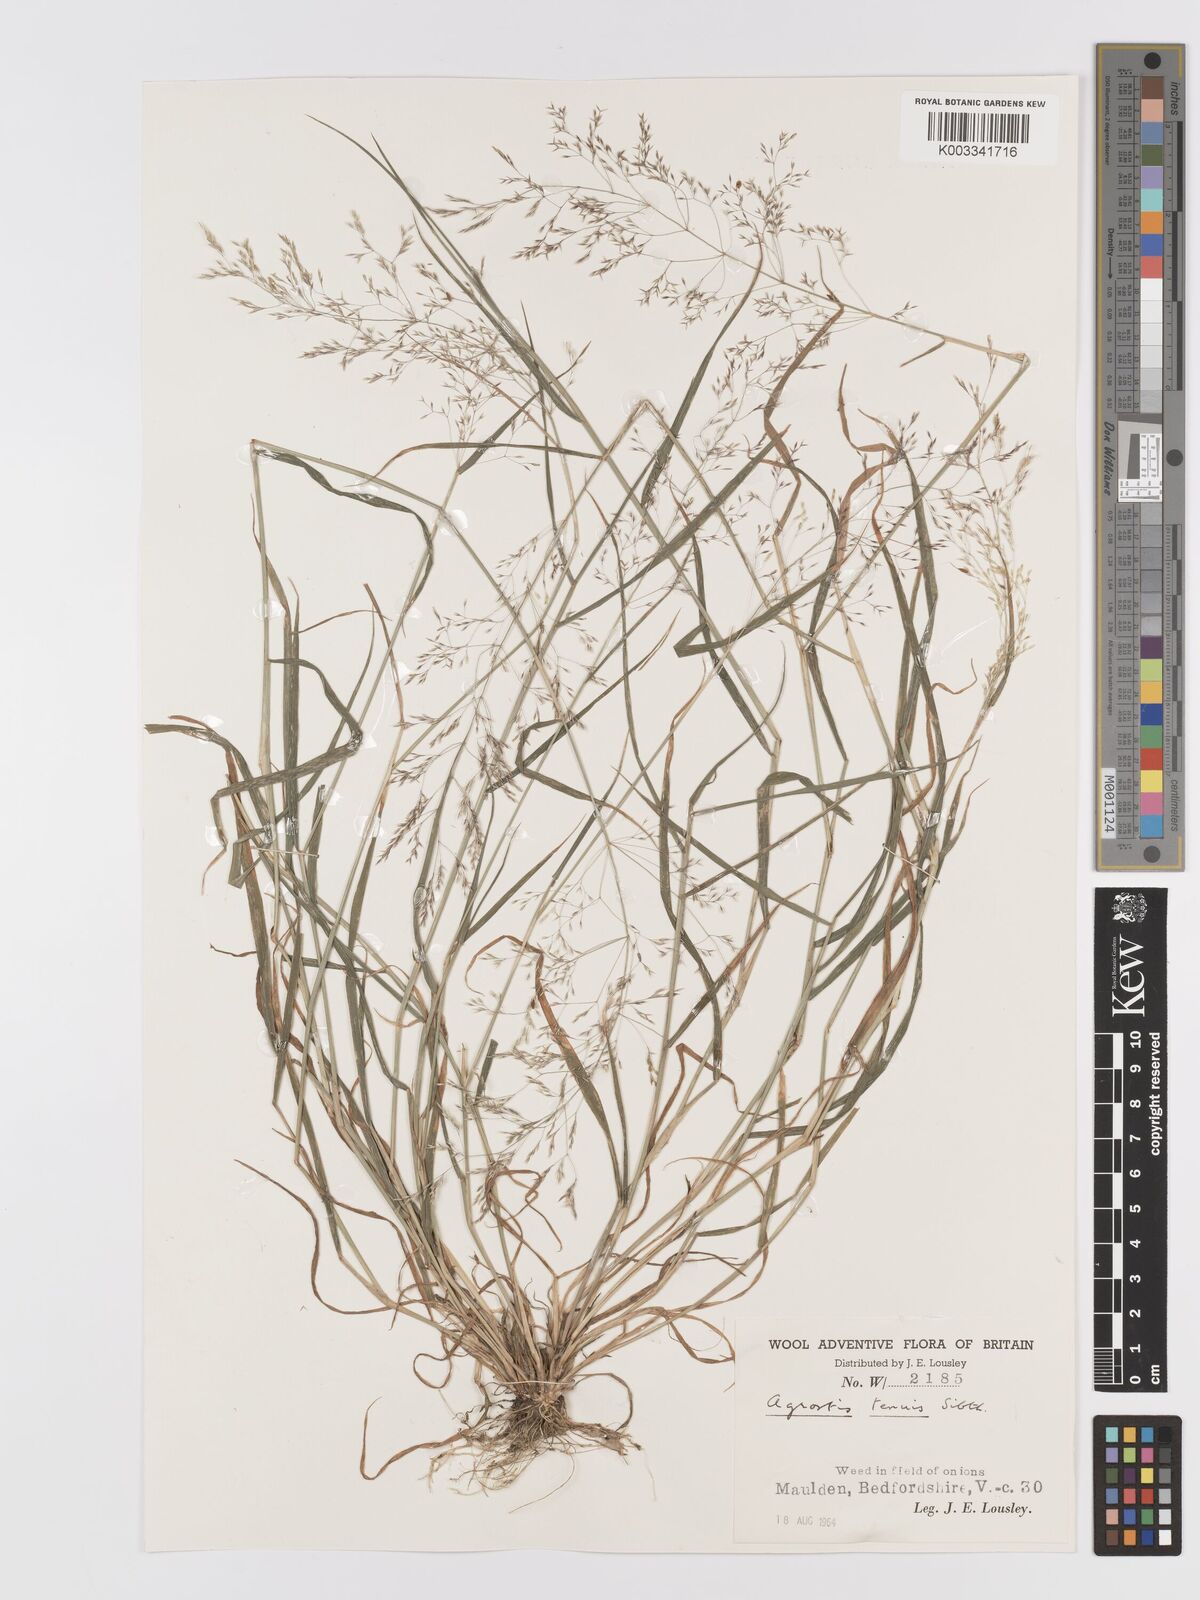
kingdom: Plantae
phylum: Tracheophyta
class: Liliopsida
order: Poales
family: Poaceae
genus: Agrostis
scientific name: Agrostis stolonifera
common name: Creeping bentgrass
